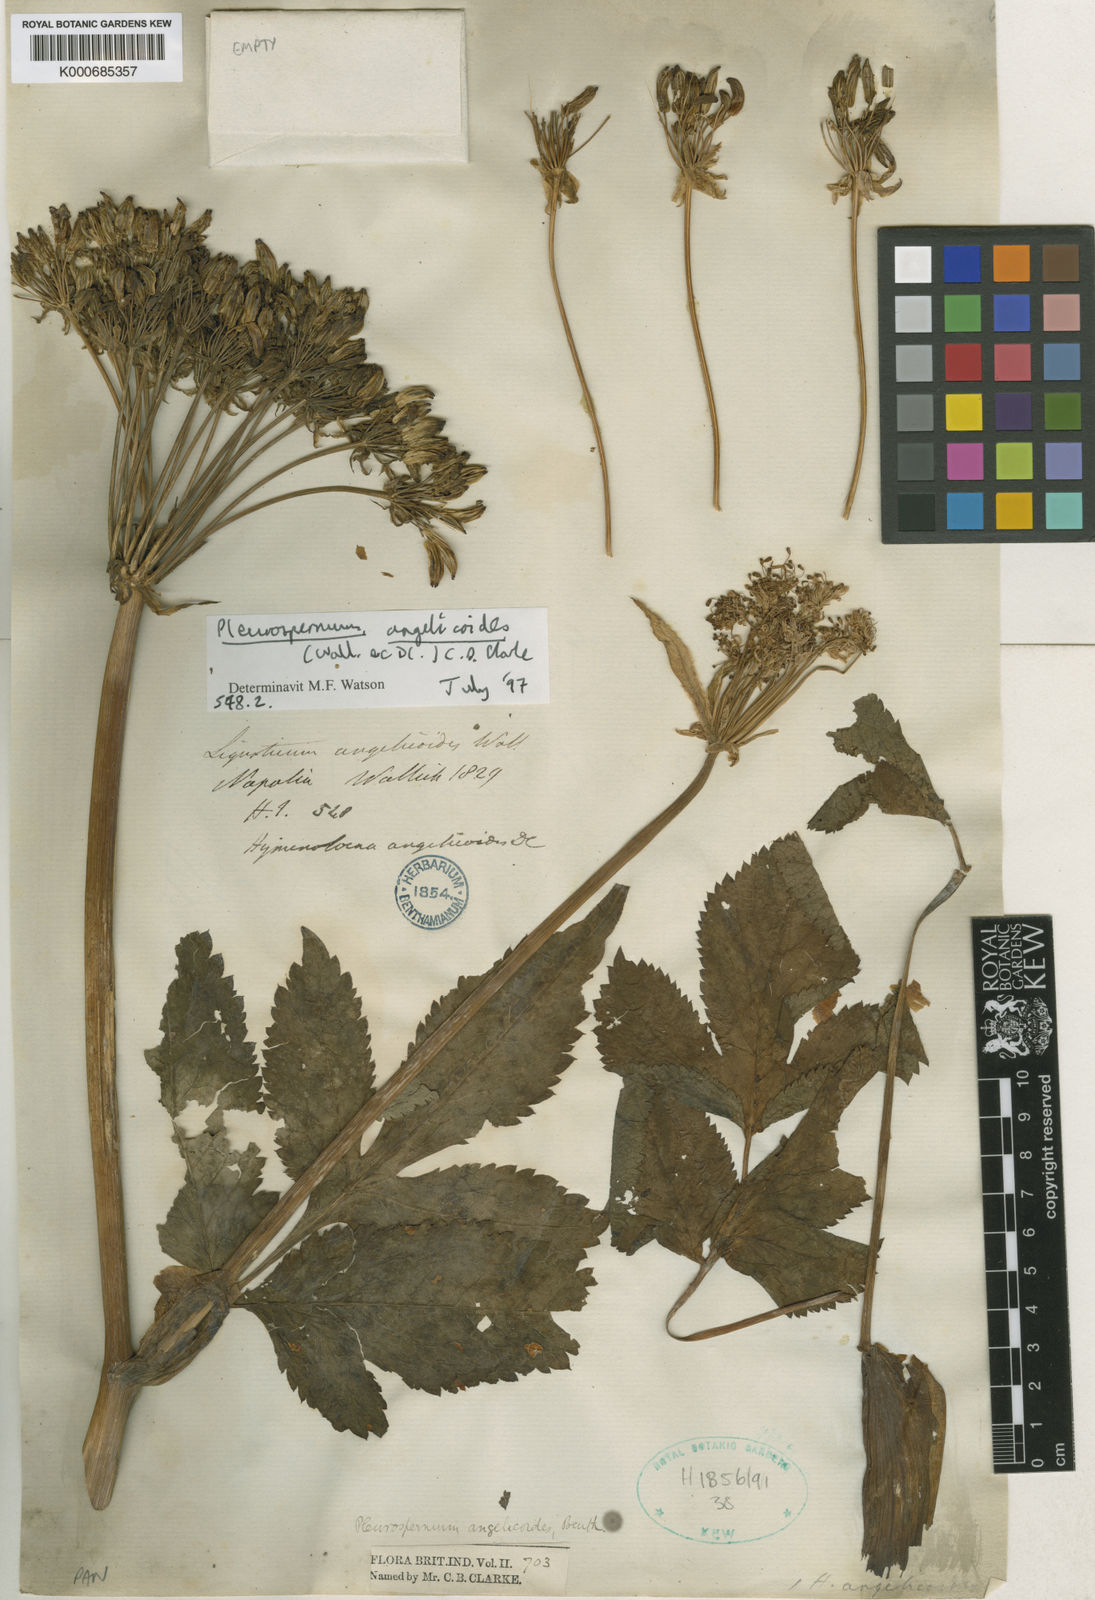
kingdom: Plantae
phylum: Tracheophyta
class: Magnoliopsida
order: Apiales
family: Apiaceae
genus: Pterocyclus
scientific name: Pterocyclus angelicoides
